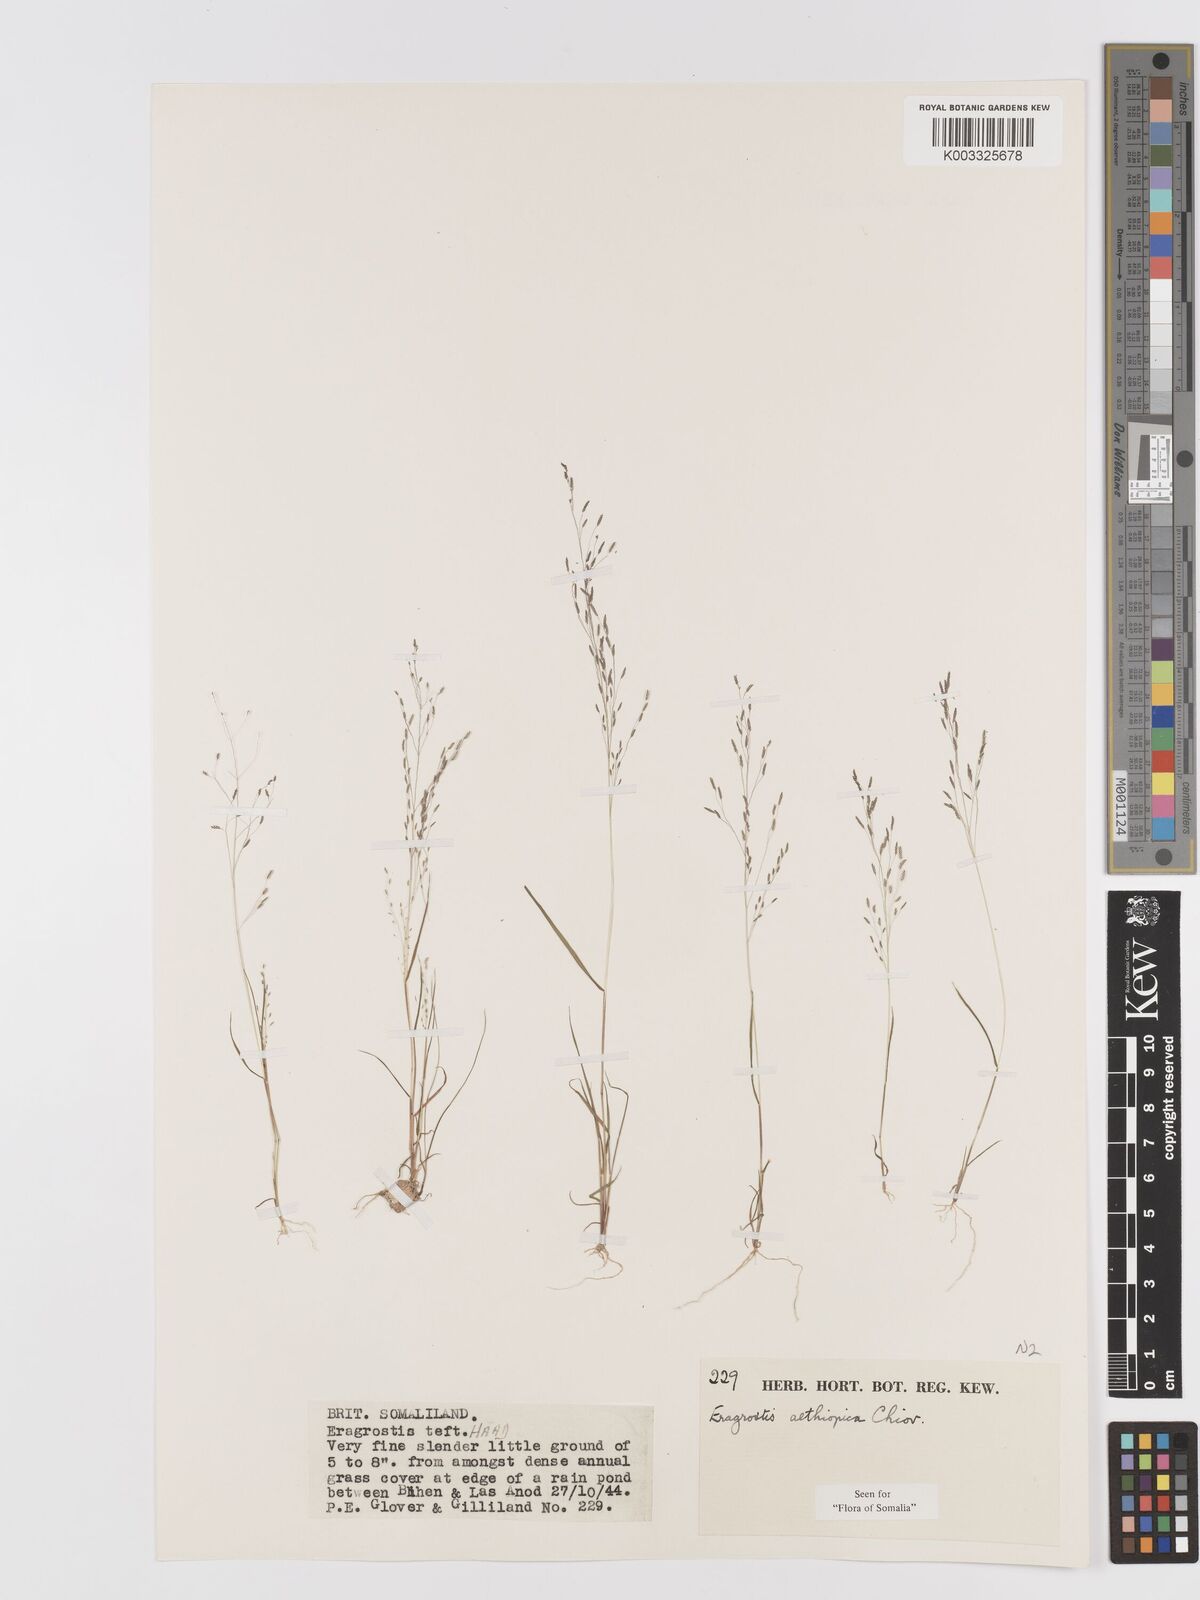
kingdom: Plantae
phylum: Tracheophyta
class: Liliopsida
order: Poales
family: Poaceae
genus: Eragrostis
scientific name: Eragrostis aethiopica
